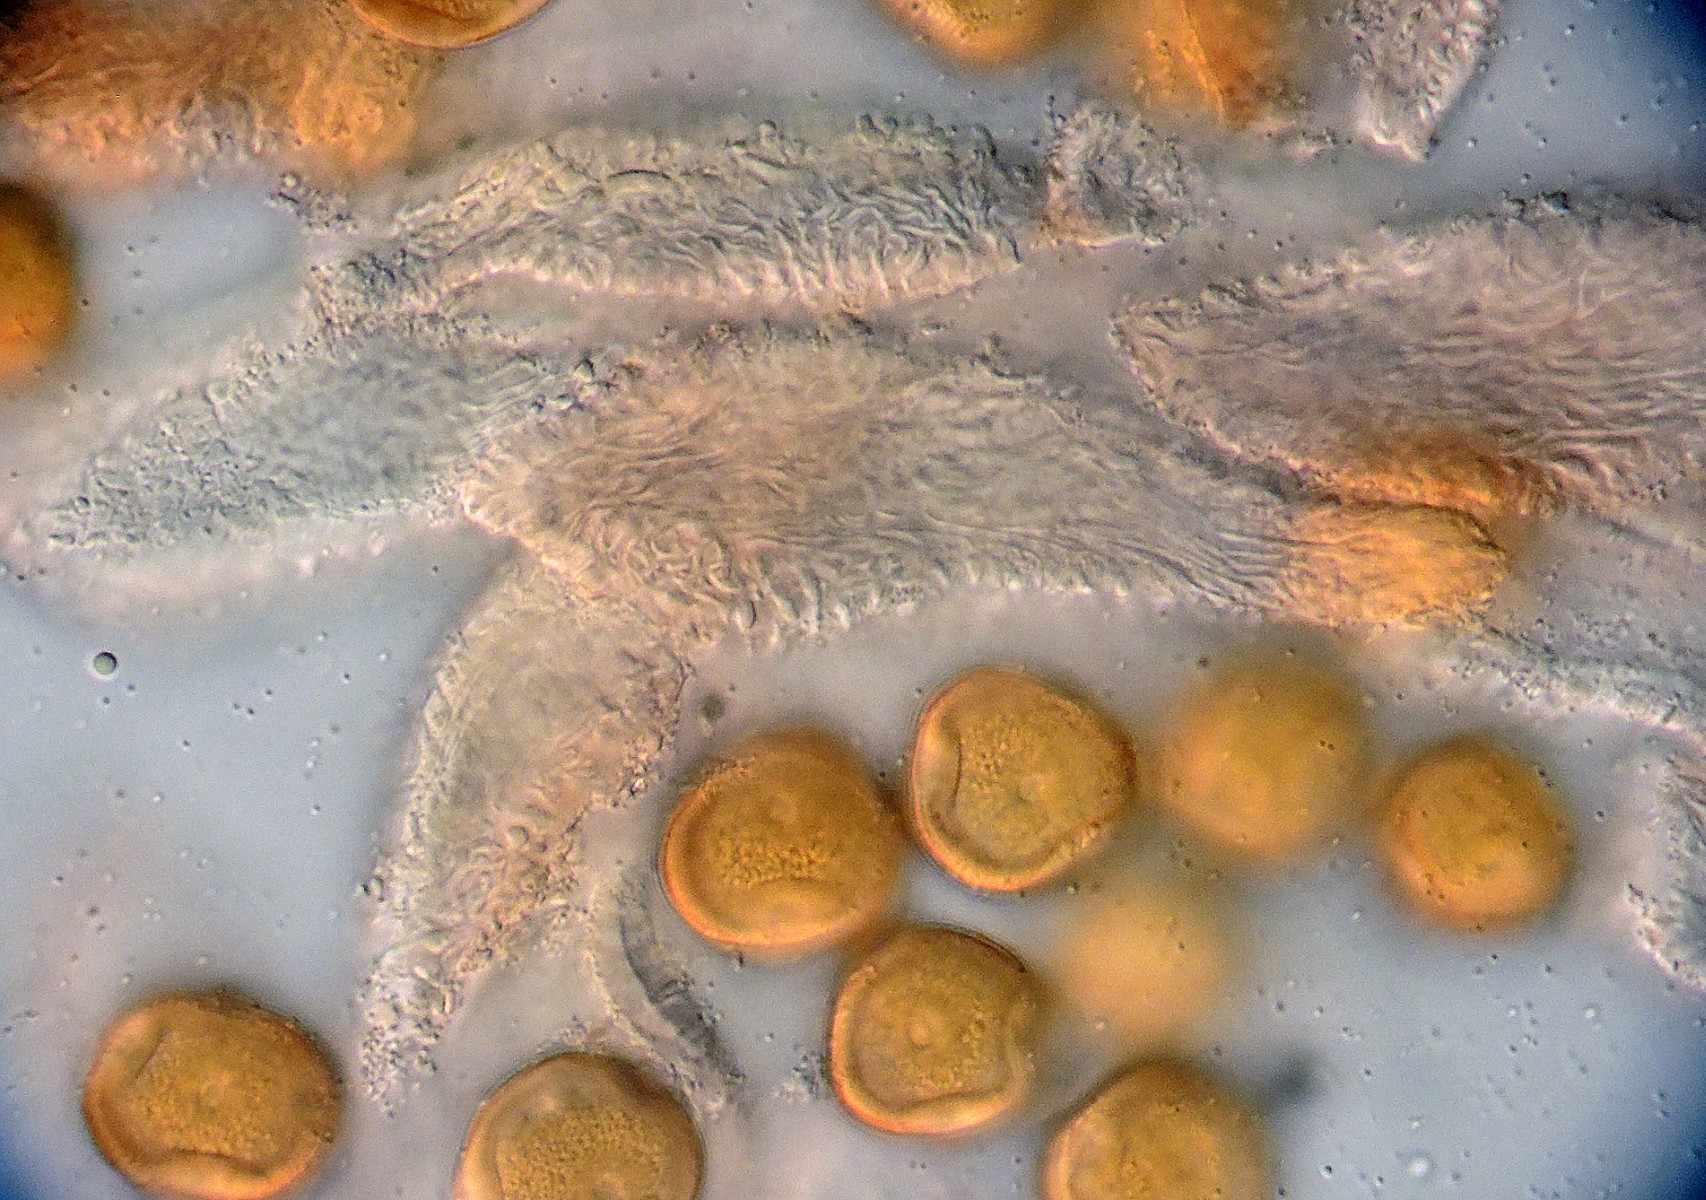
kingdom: Fungi
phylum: Basidiomycota
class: Pucciniomycetes
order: Pucciniales
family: Gymnosporangiaceae
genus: Gymnosporangium
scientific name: Gymnosporangium confusum
